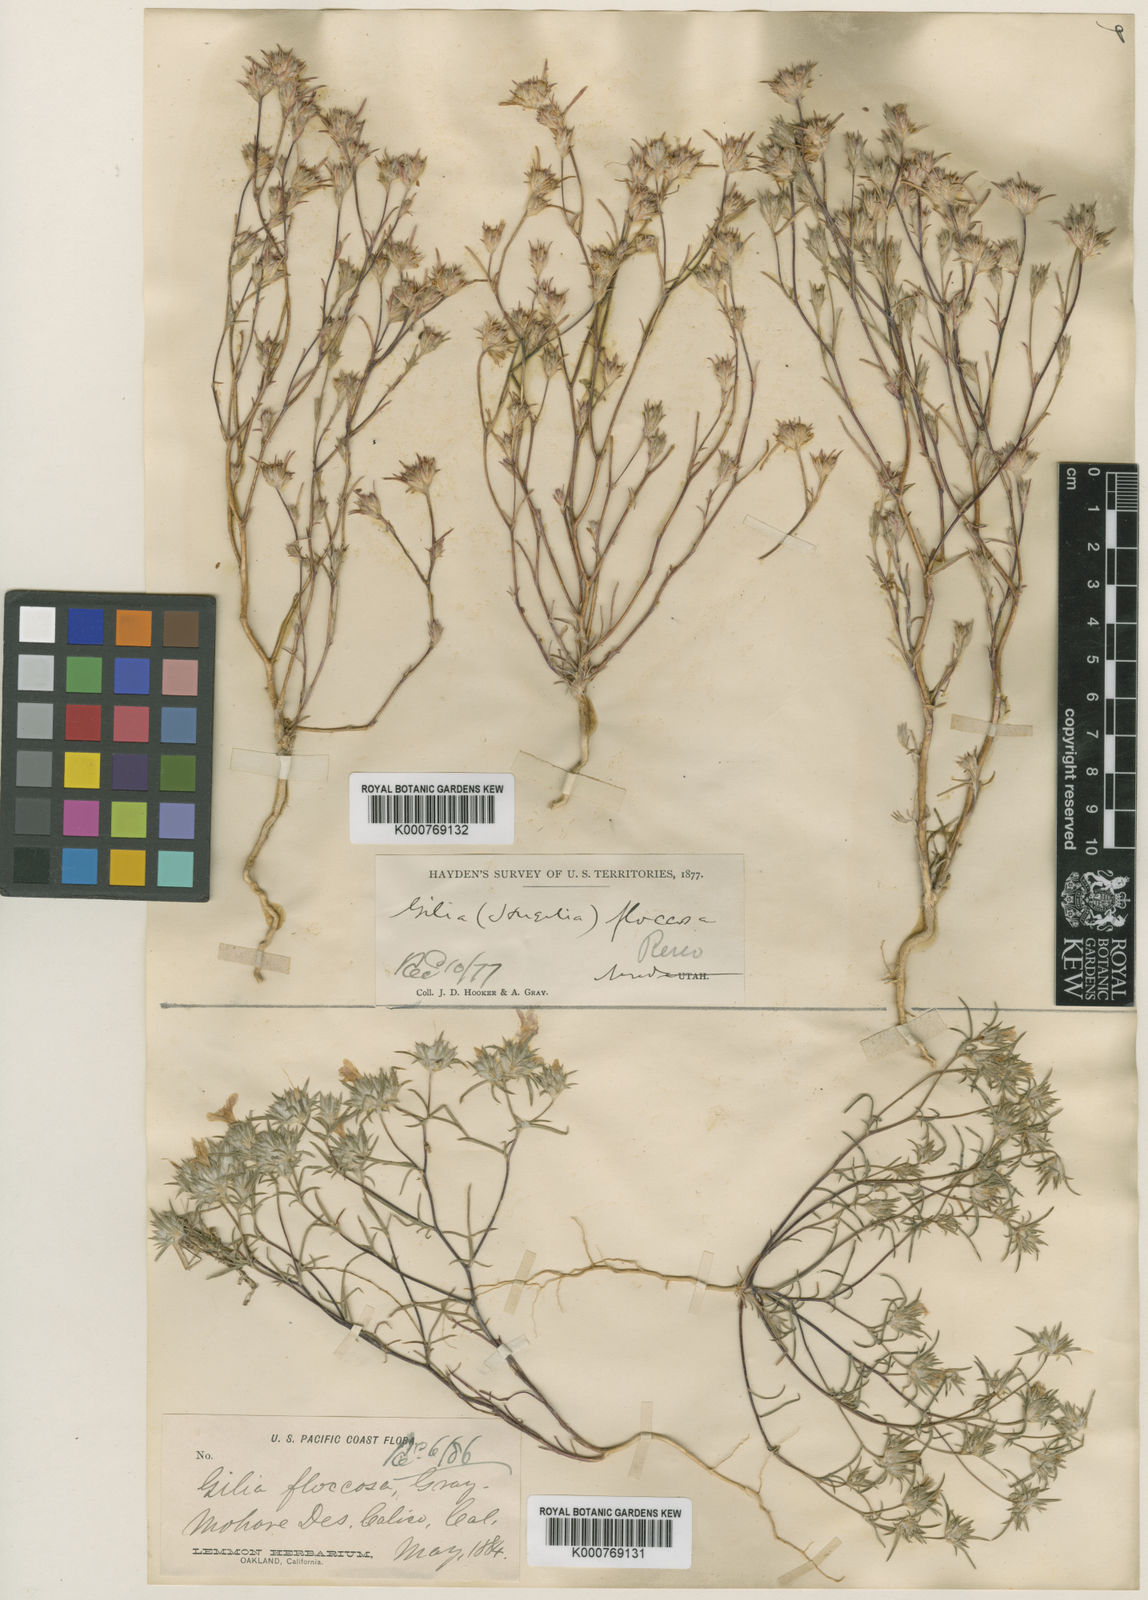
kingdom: Plantae
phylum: Tracheophyta
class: Magnoliopsida
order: Ericales
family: Polemoniaceae
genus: Eriastrum
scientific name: Eriastrum virgatum
